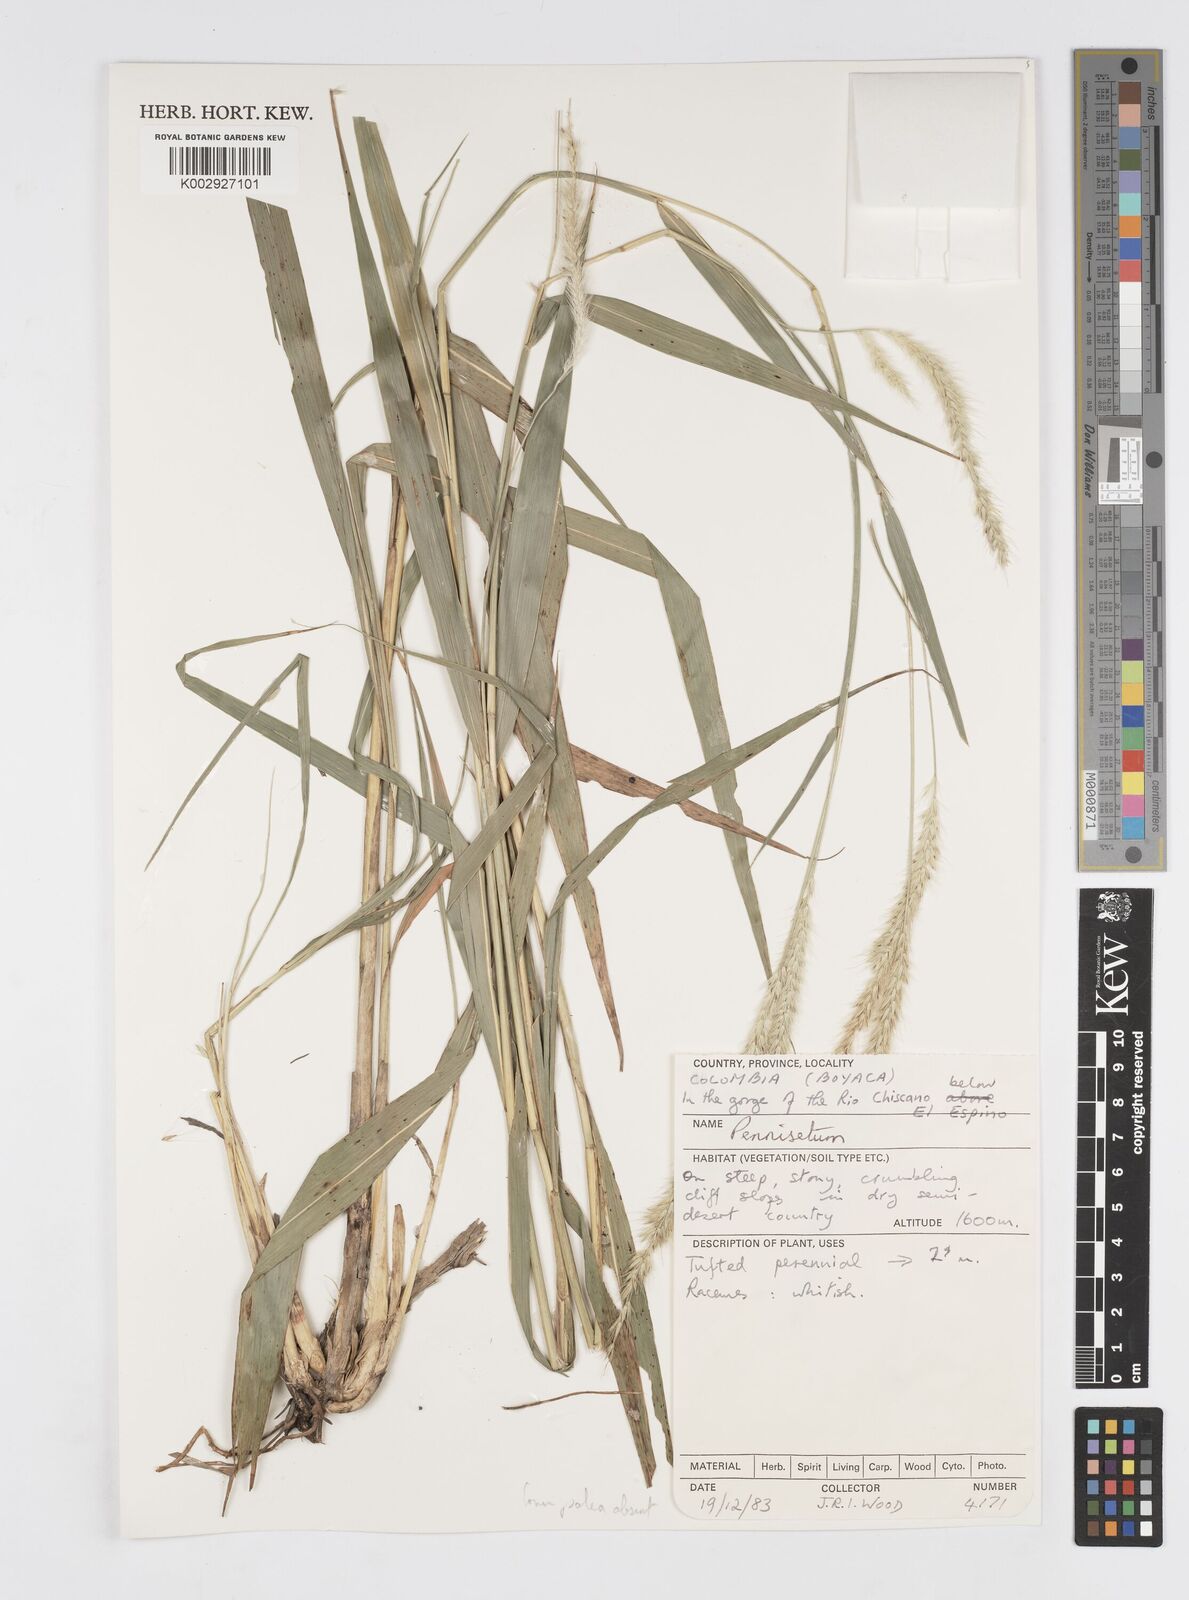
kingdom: Plantae
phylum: Tracheophyta
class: Liliopsida
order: Poales
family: Poaceae
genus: Cenchrus
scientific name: Cenchrus tristachyus
